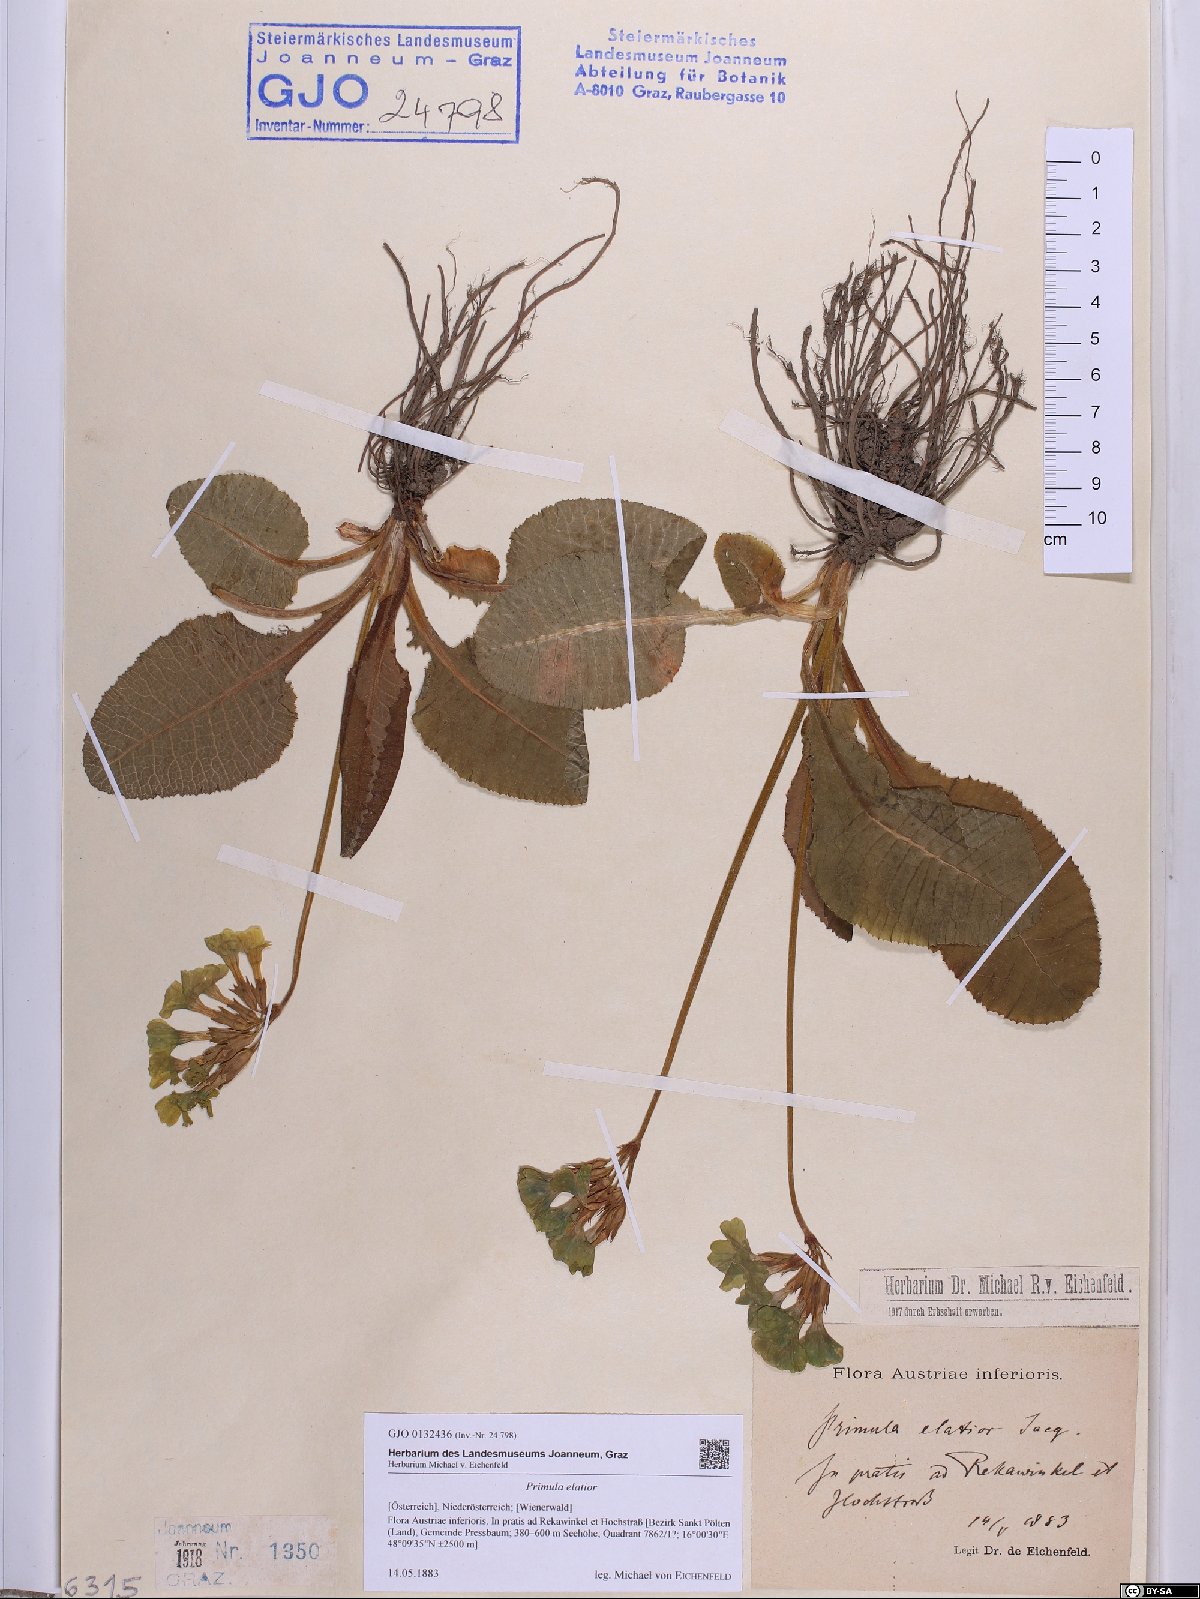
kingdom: Plantae
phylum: Tracheophyta
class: Magnoliopsida
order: Ericales
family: Primulaceae
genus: Primula
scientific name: Primula elatior
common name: Oxlip
